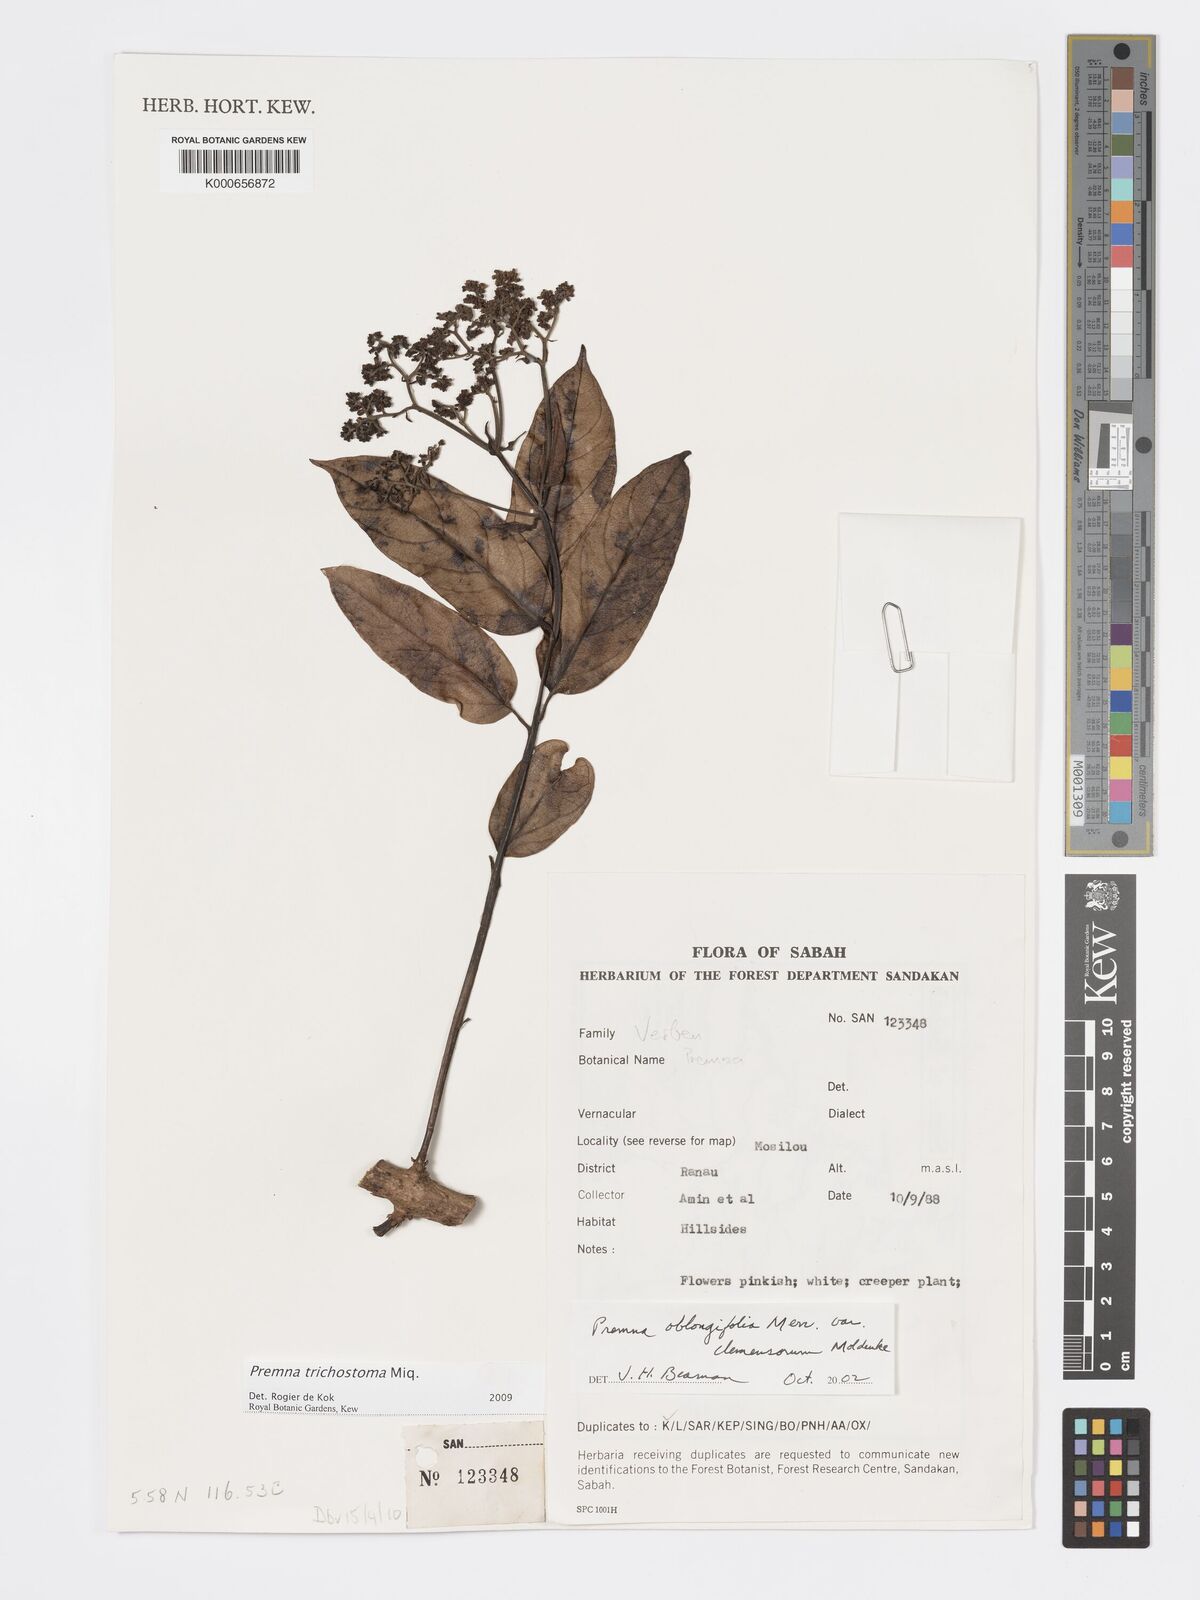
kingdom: Plantae
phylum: Tracheophyta
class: Magnoliopsida
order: Lamiales
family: Lamiaceae
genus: Premna
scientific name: Premna trichostoma
